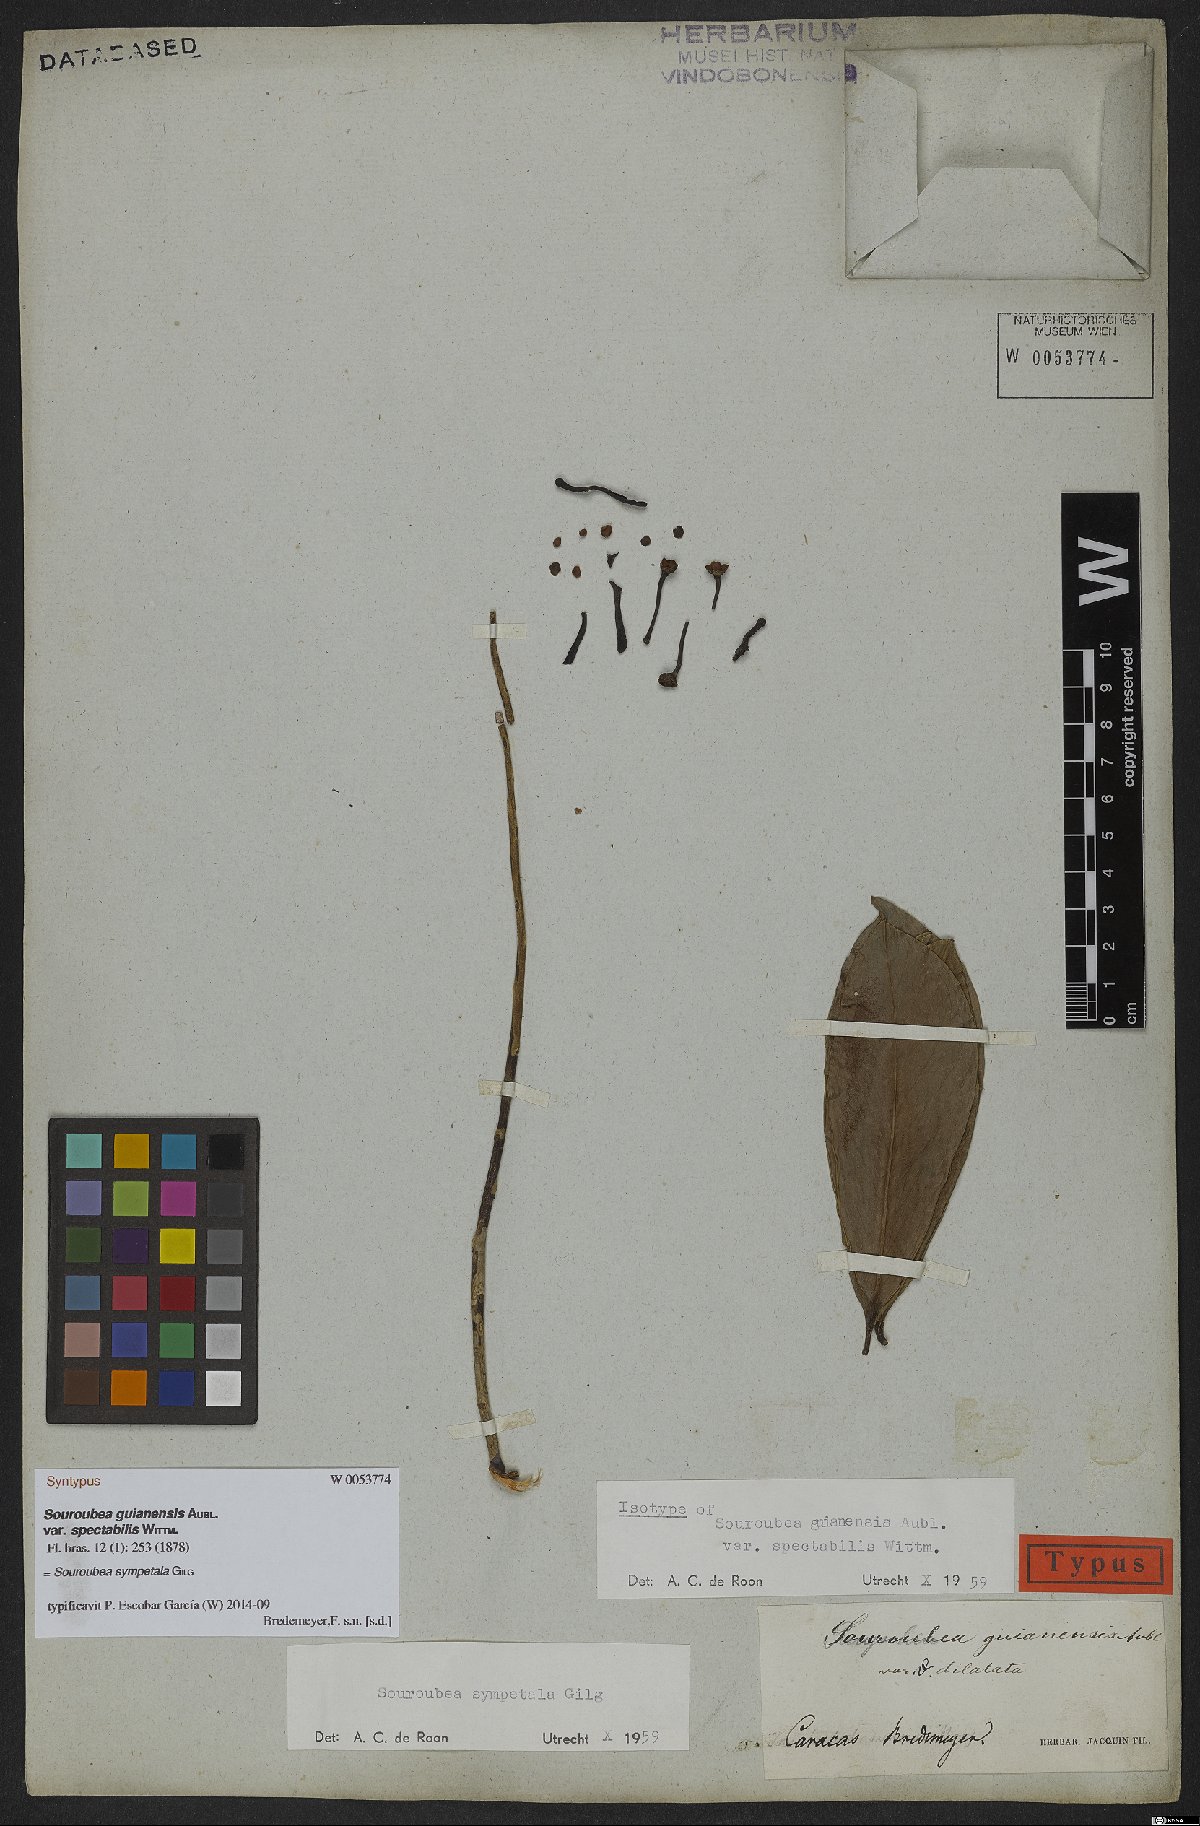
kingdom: Plantae
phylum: Tracheophyta
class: Magnoliopsida
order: Ericales
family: Marcgraviaceae
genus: Souroubea
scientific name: Souroubea sympetala
